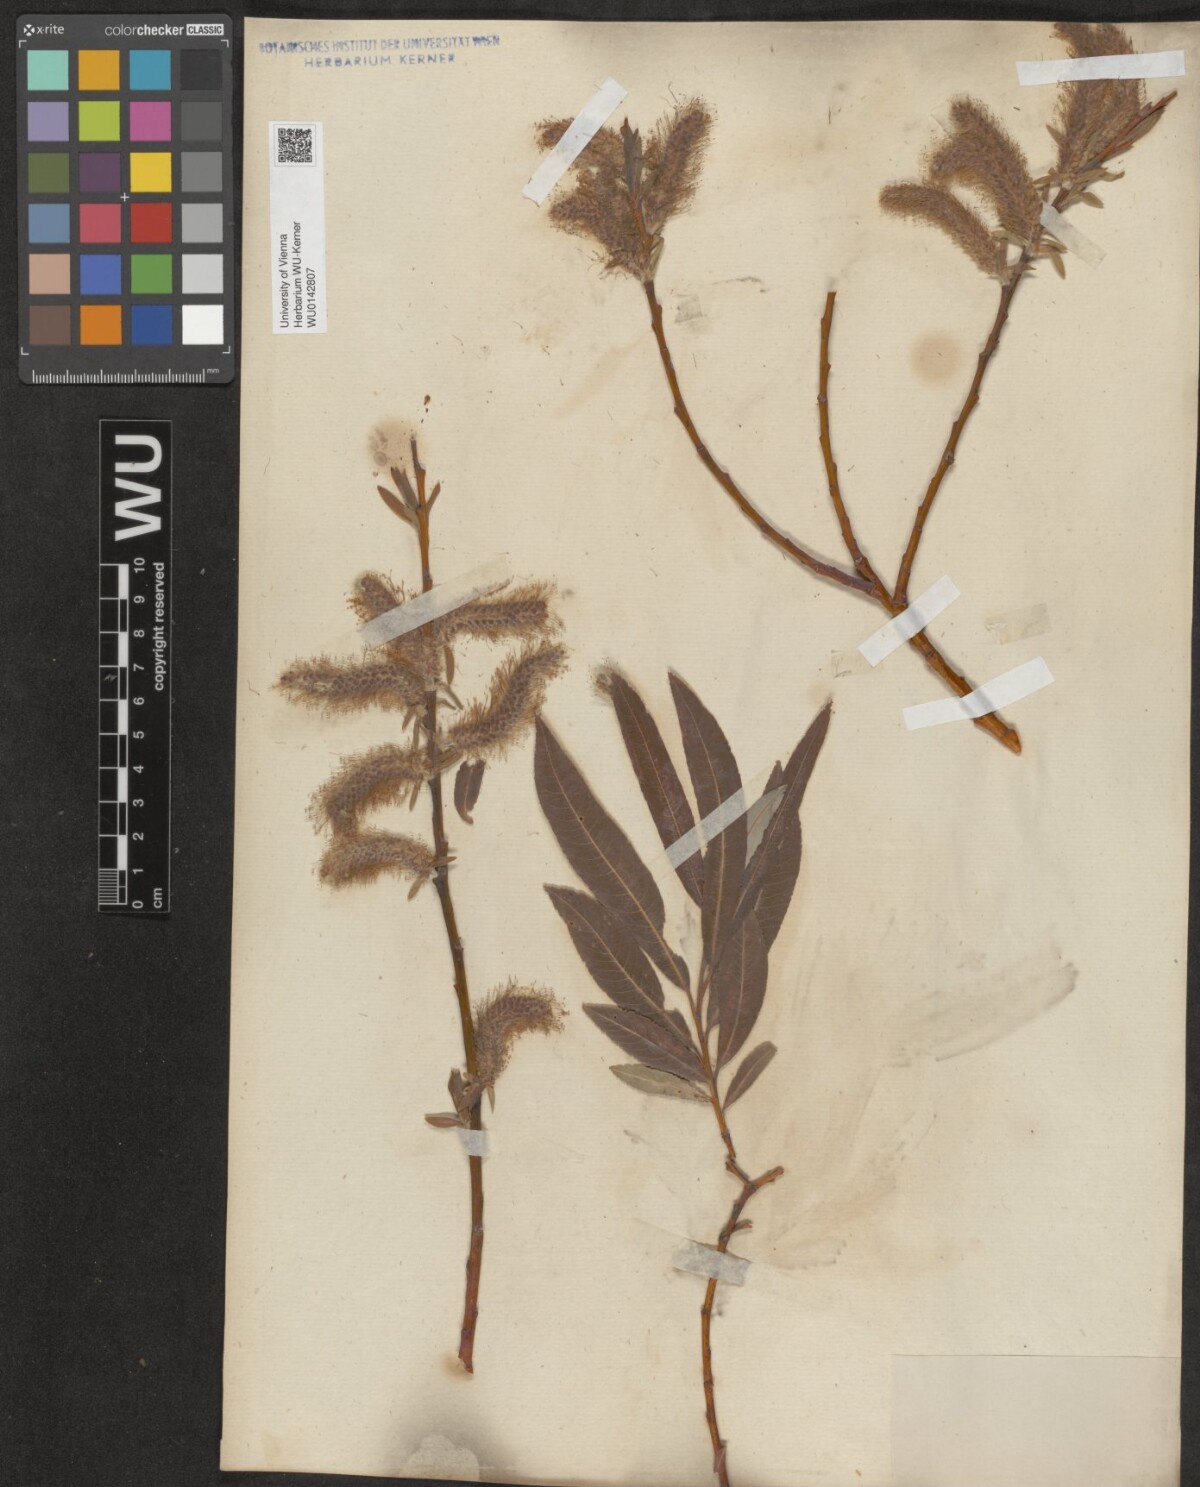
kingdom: Plantae
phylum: Tracheophyta
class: Magnoliopsida
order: Malpighiales
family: Salicaceae
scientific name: Salicaceae
